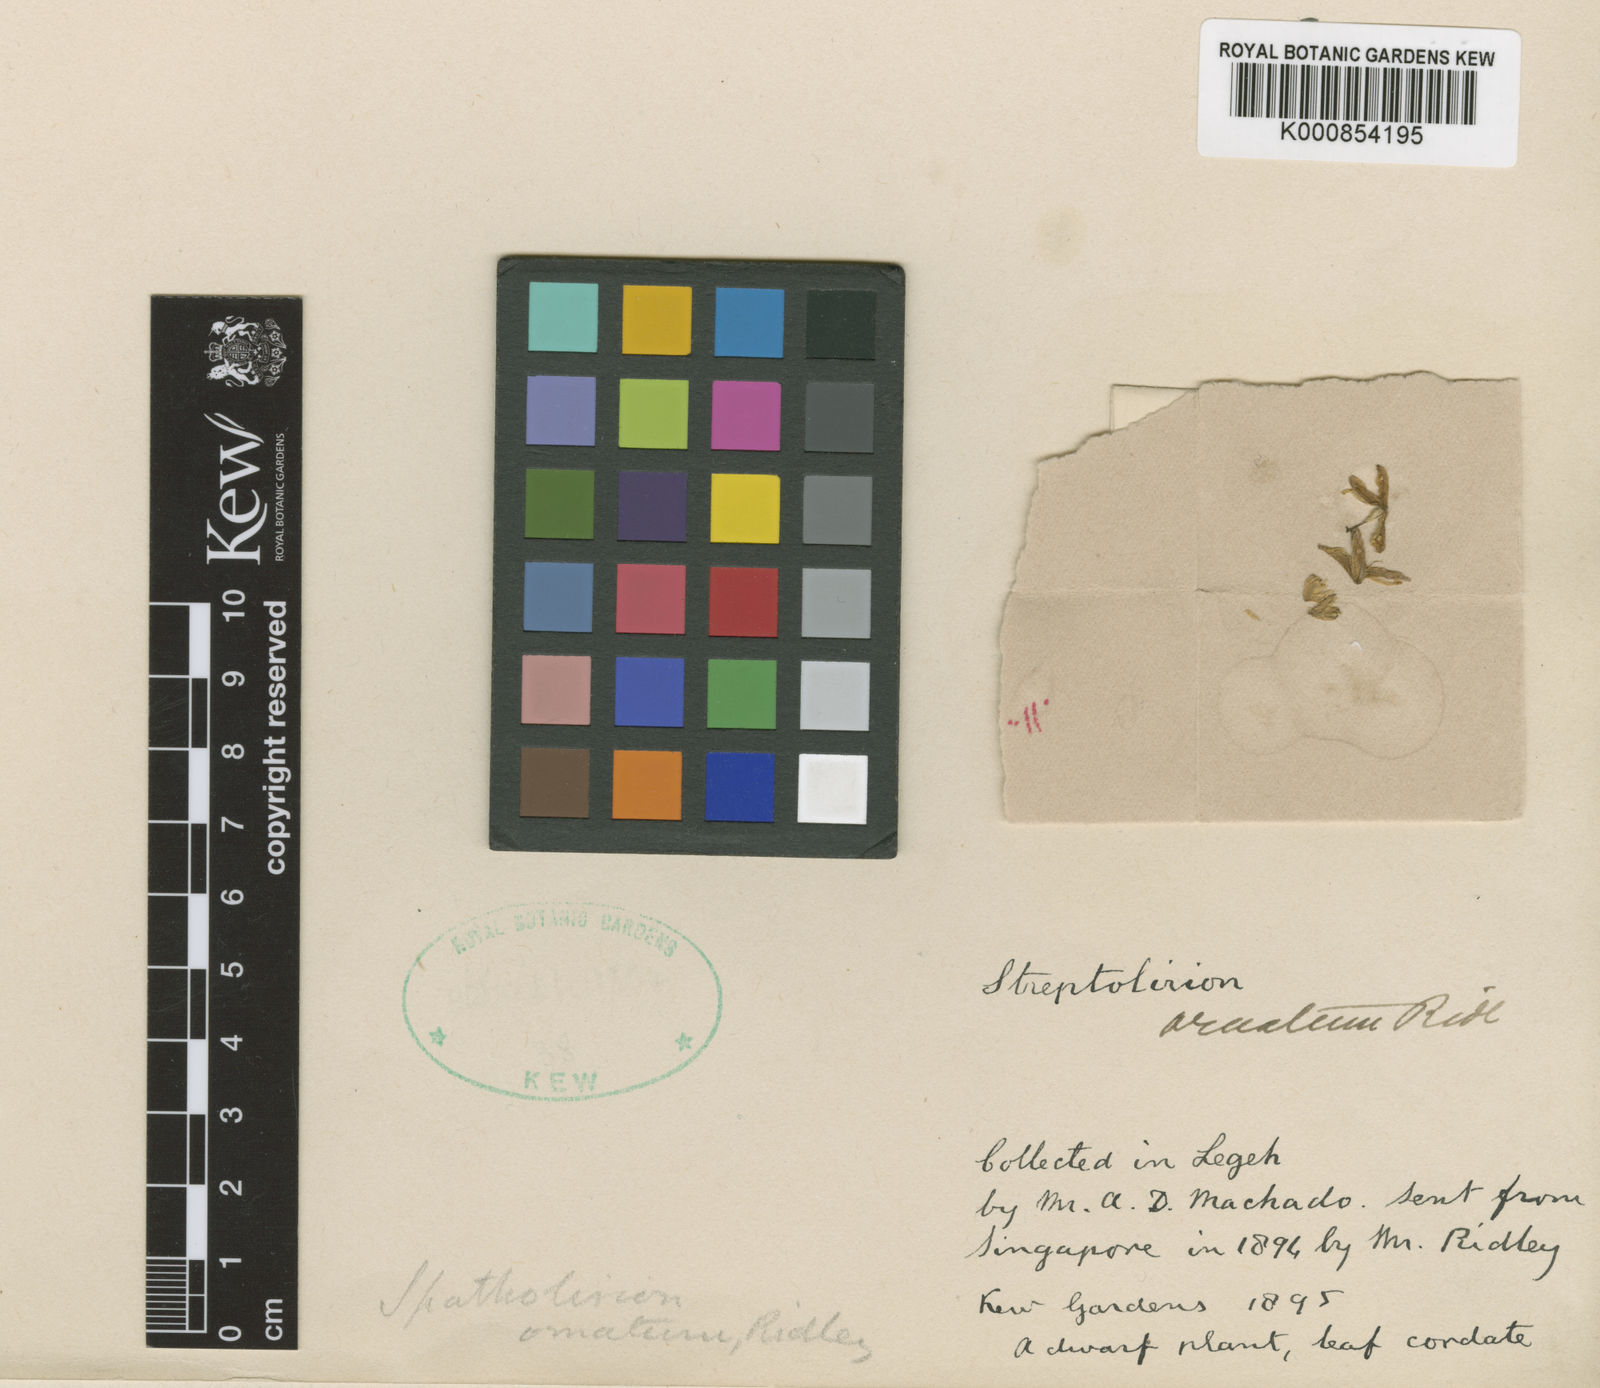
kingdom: Plantae
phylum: Tracheophyta
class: Liliopsida
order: Commelinales
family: Commelinaceae
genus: Spatholirion
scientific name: Spatholirion ornatum
